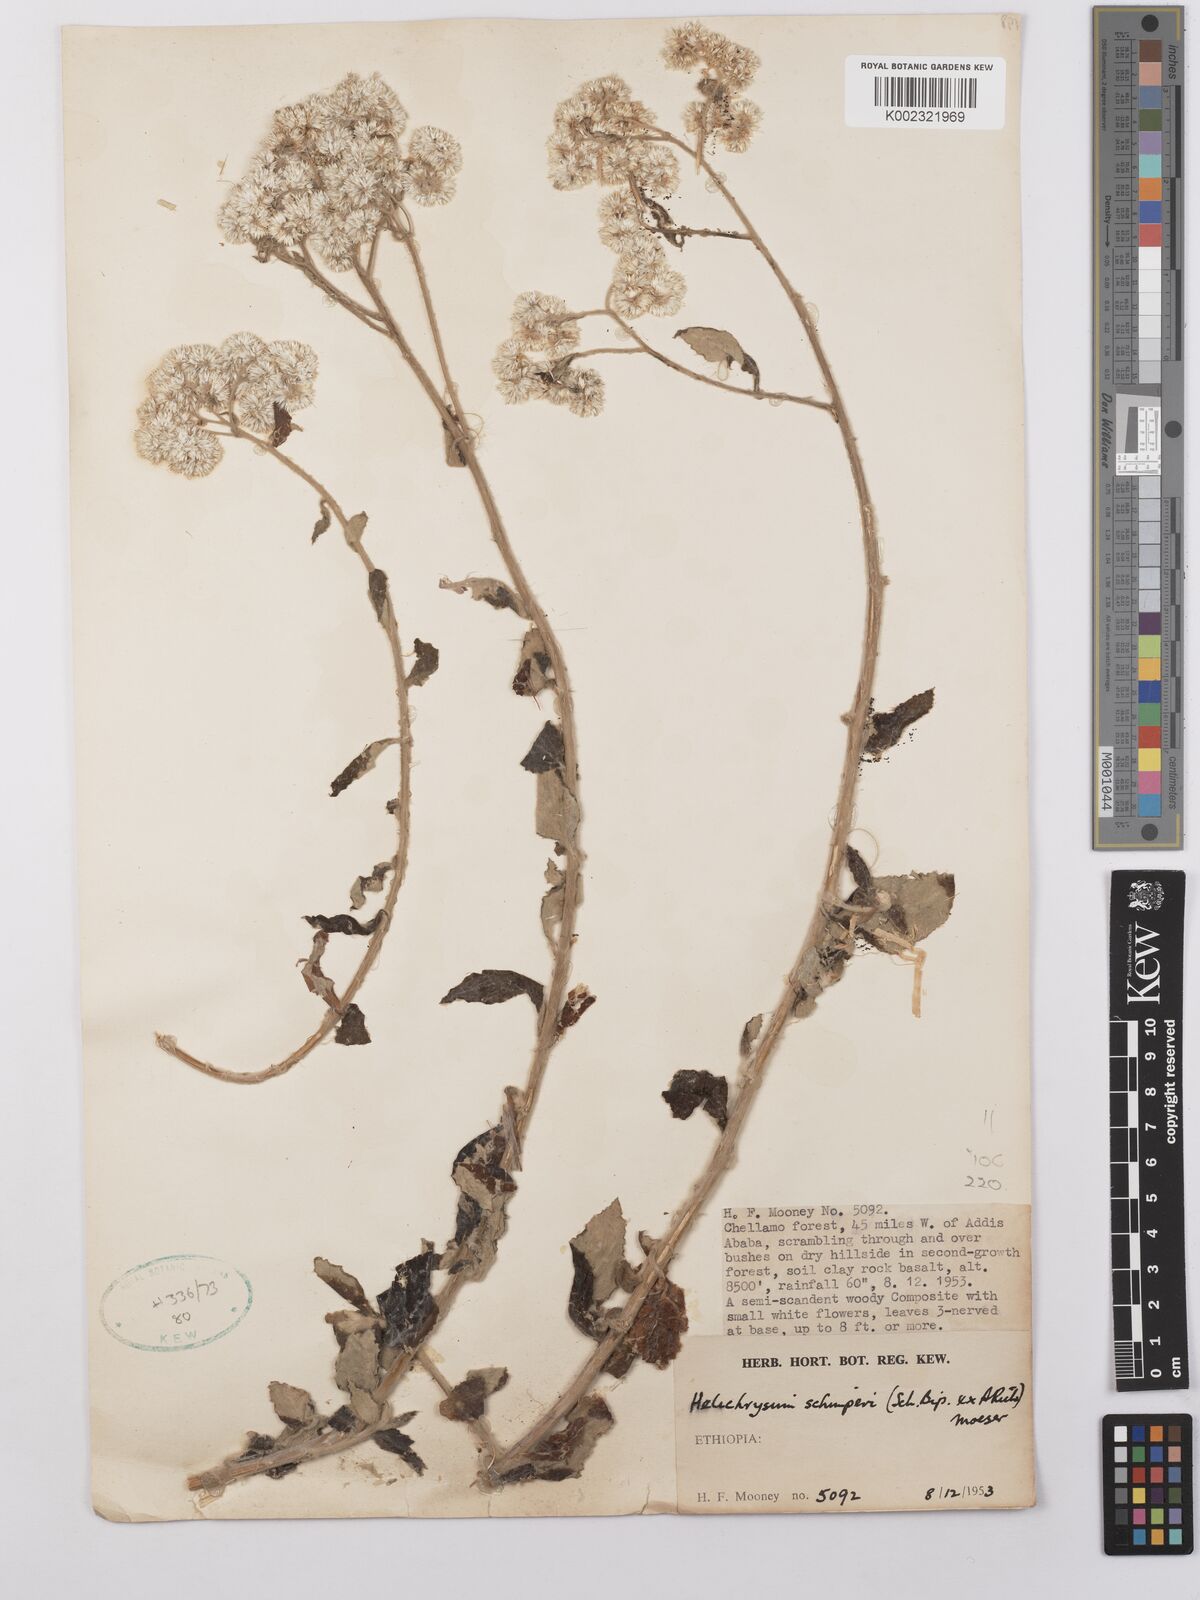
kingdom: Plantae
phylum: Tracheophyta
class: Magnoliopsida
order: Asterales
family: Asteraceae
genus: Helichrysum
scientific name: Helichrysum schimperi
